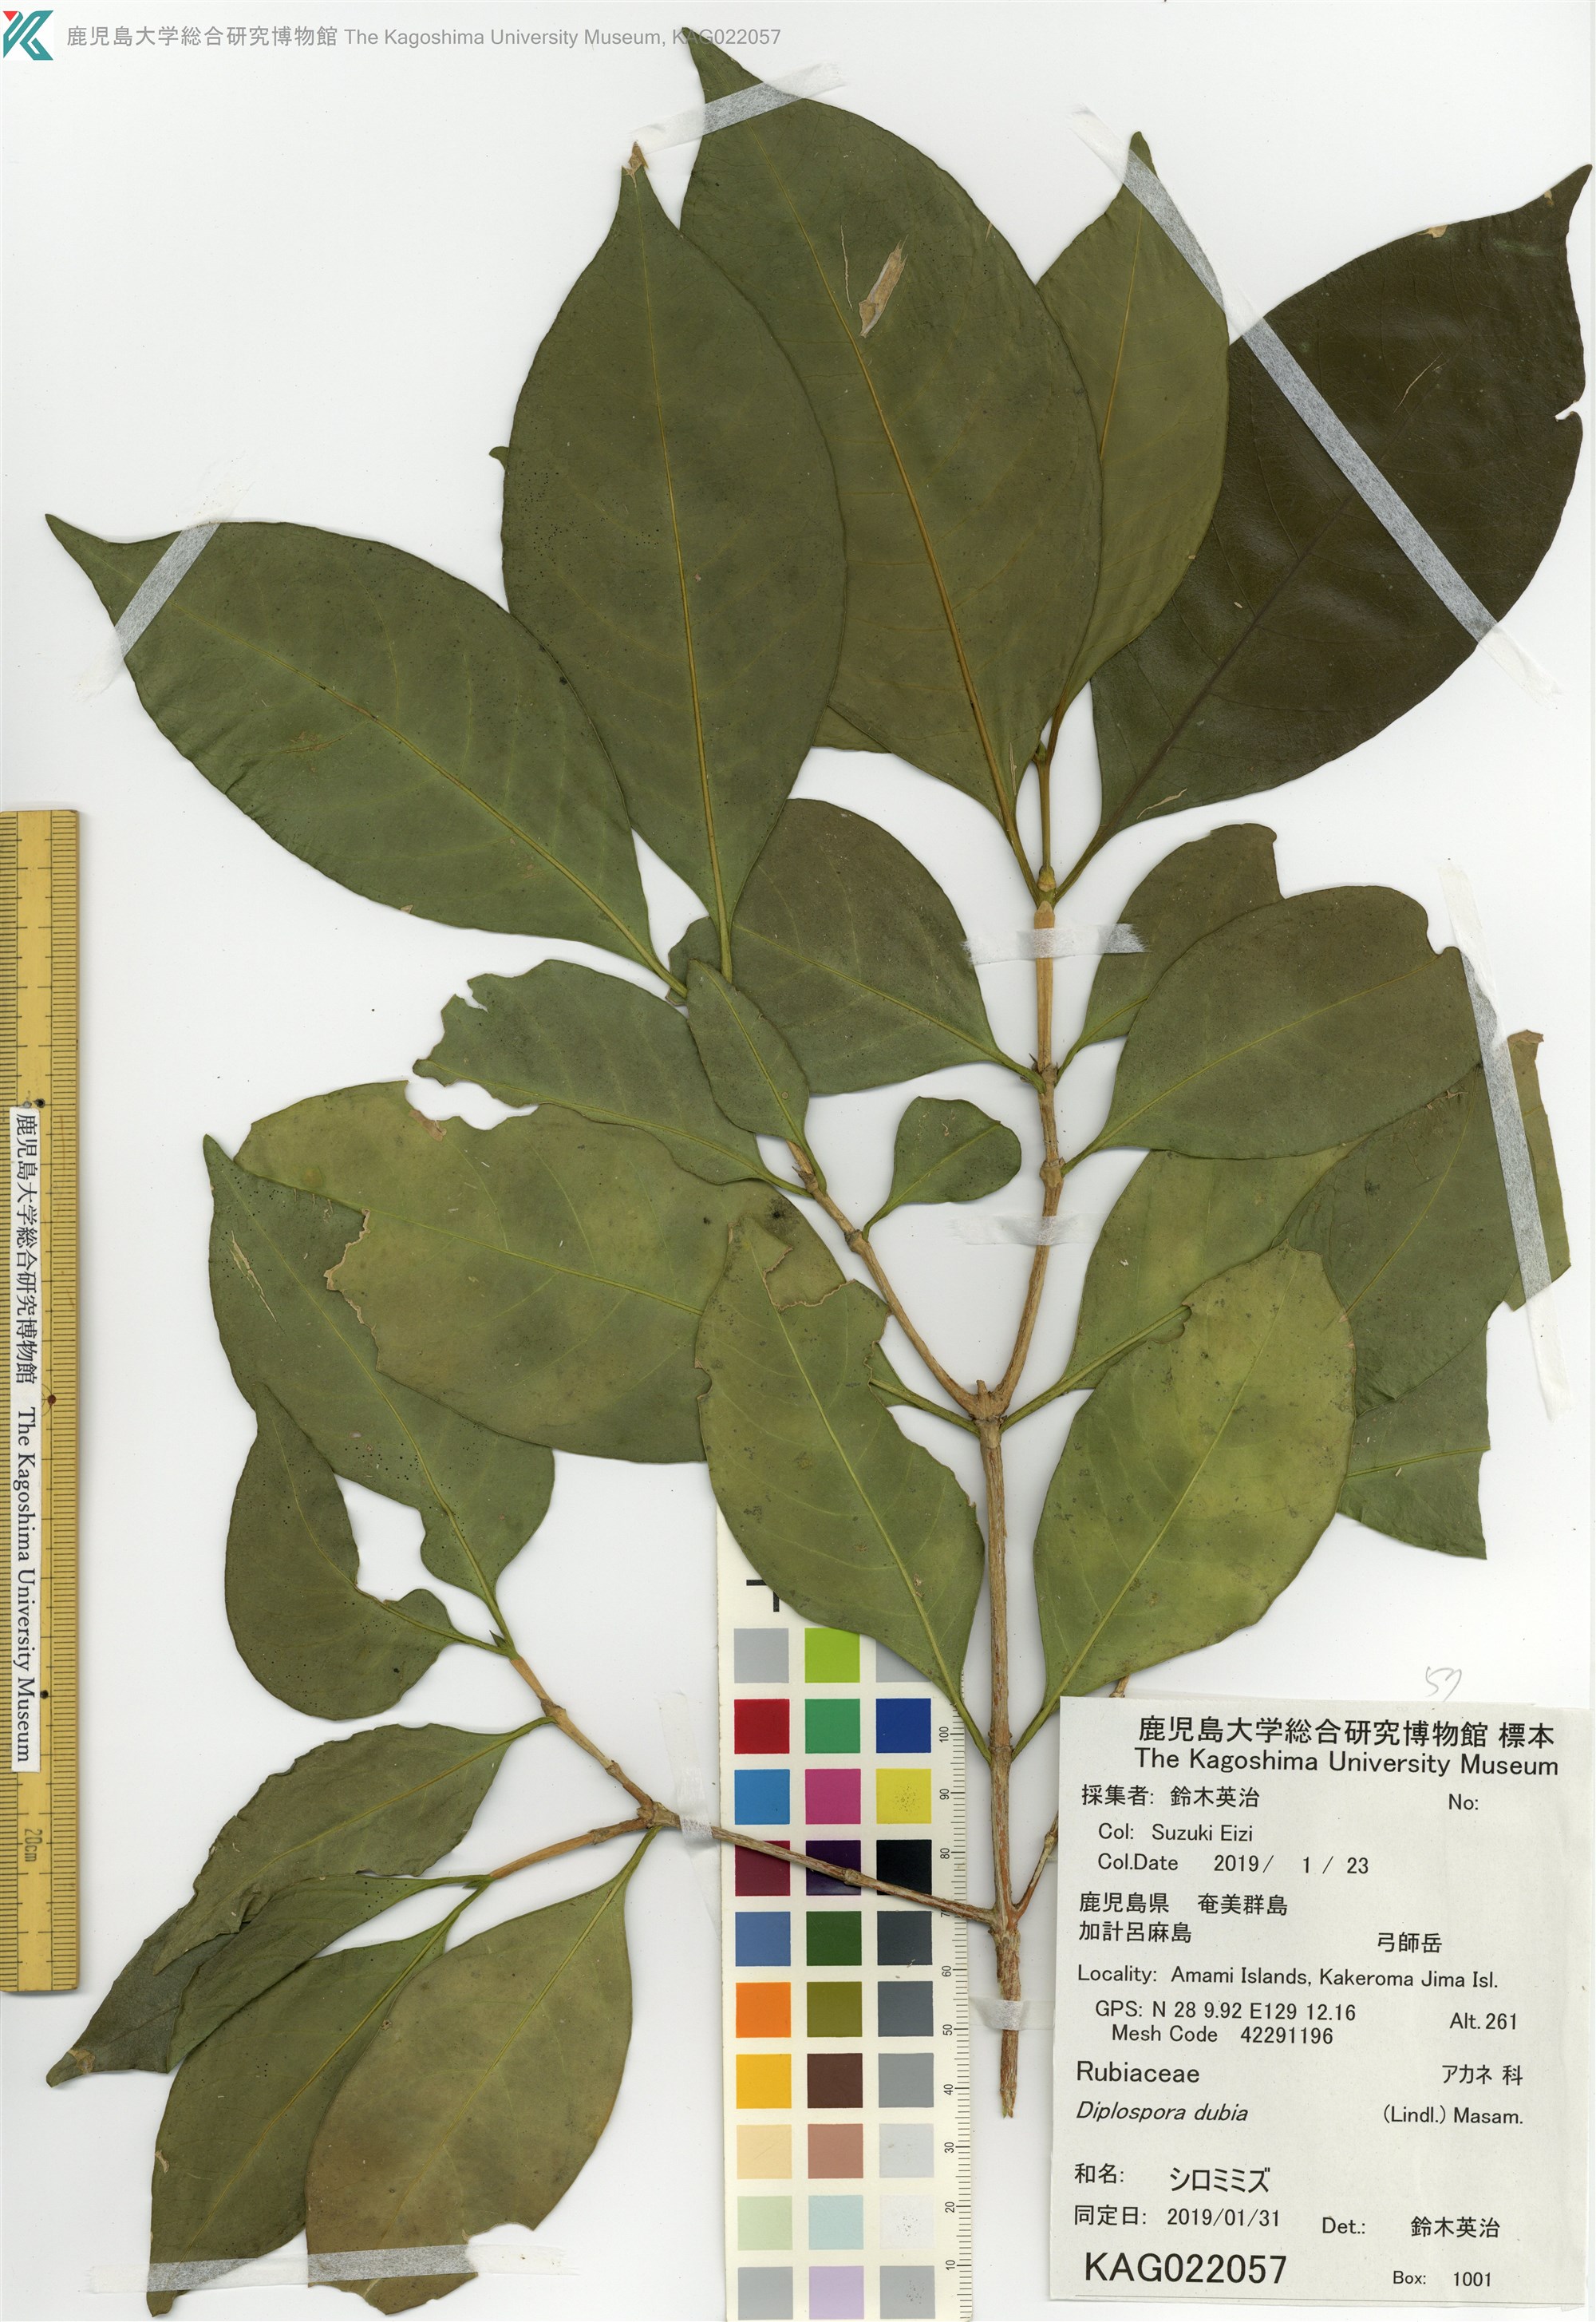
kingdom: Plantae
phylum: Tracheophyta
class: Magnoliopsida
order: Gentianales
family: Rubiaceae
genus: Diplospora
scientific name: Diplospora dubia
